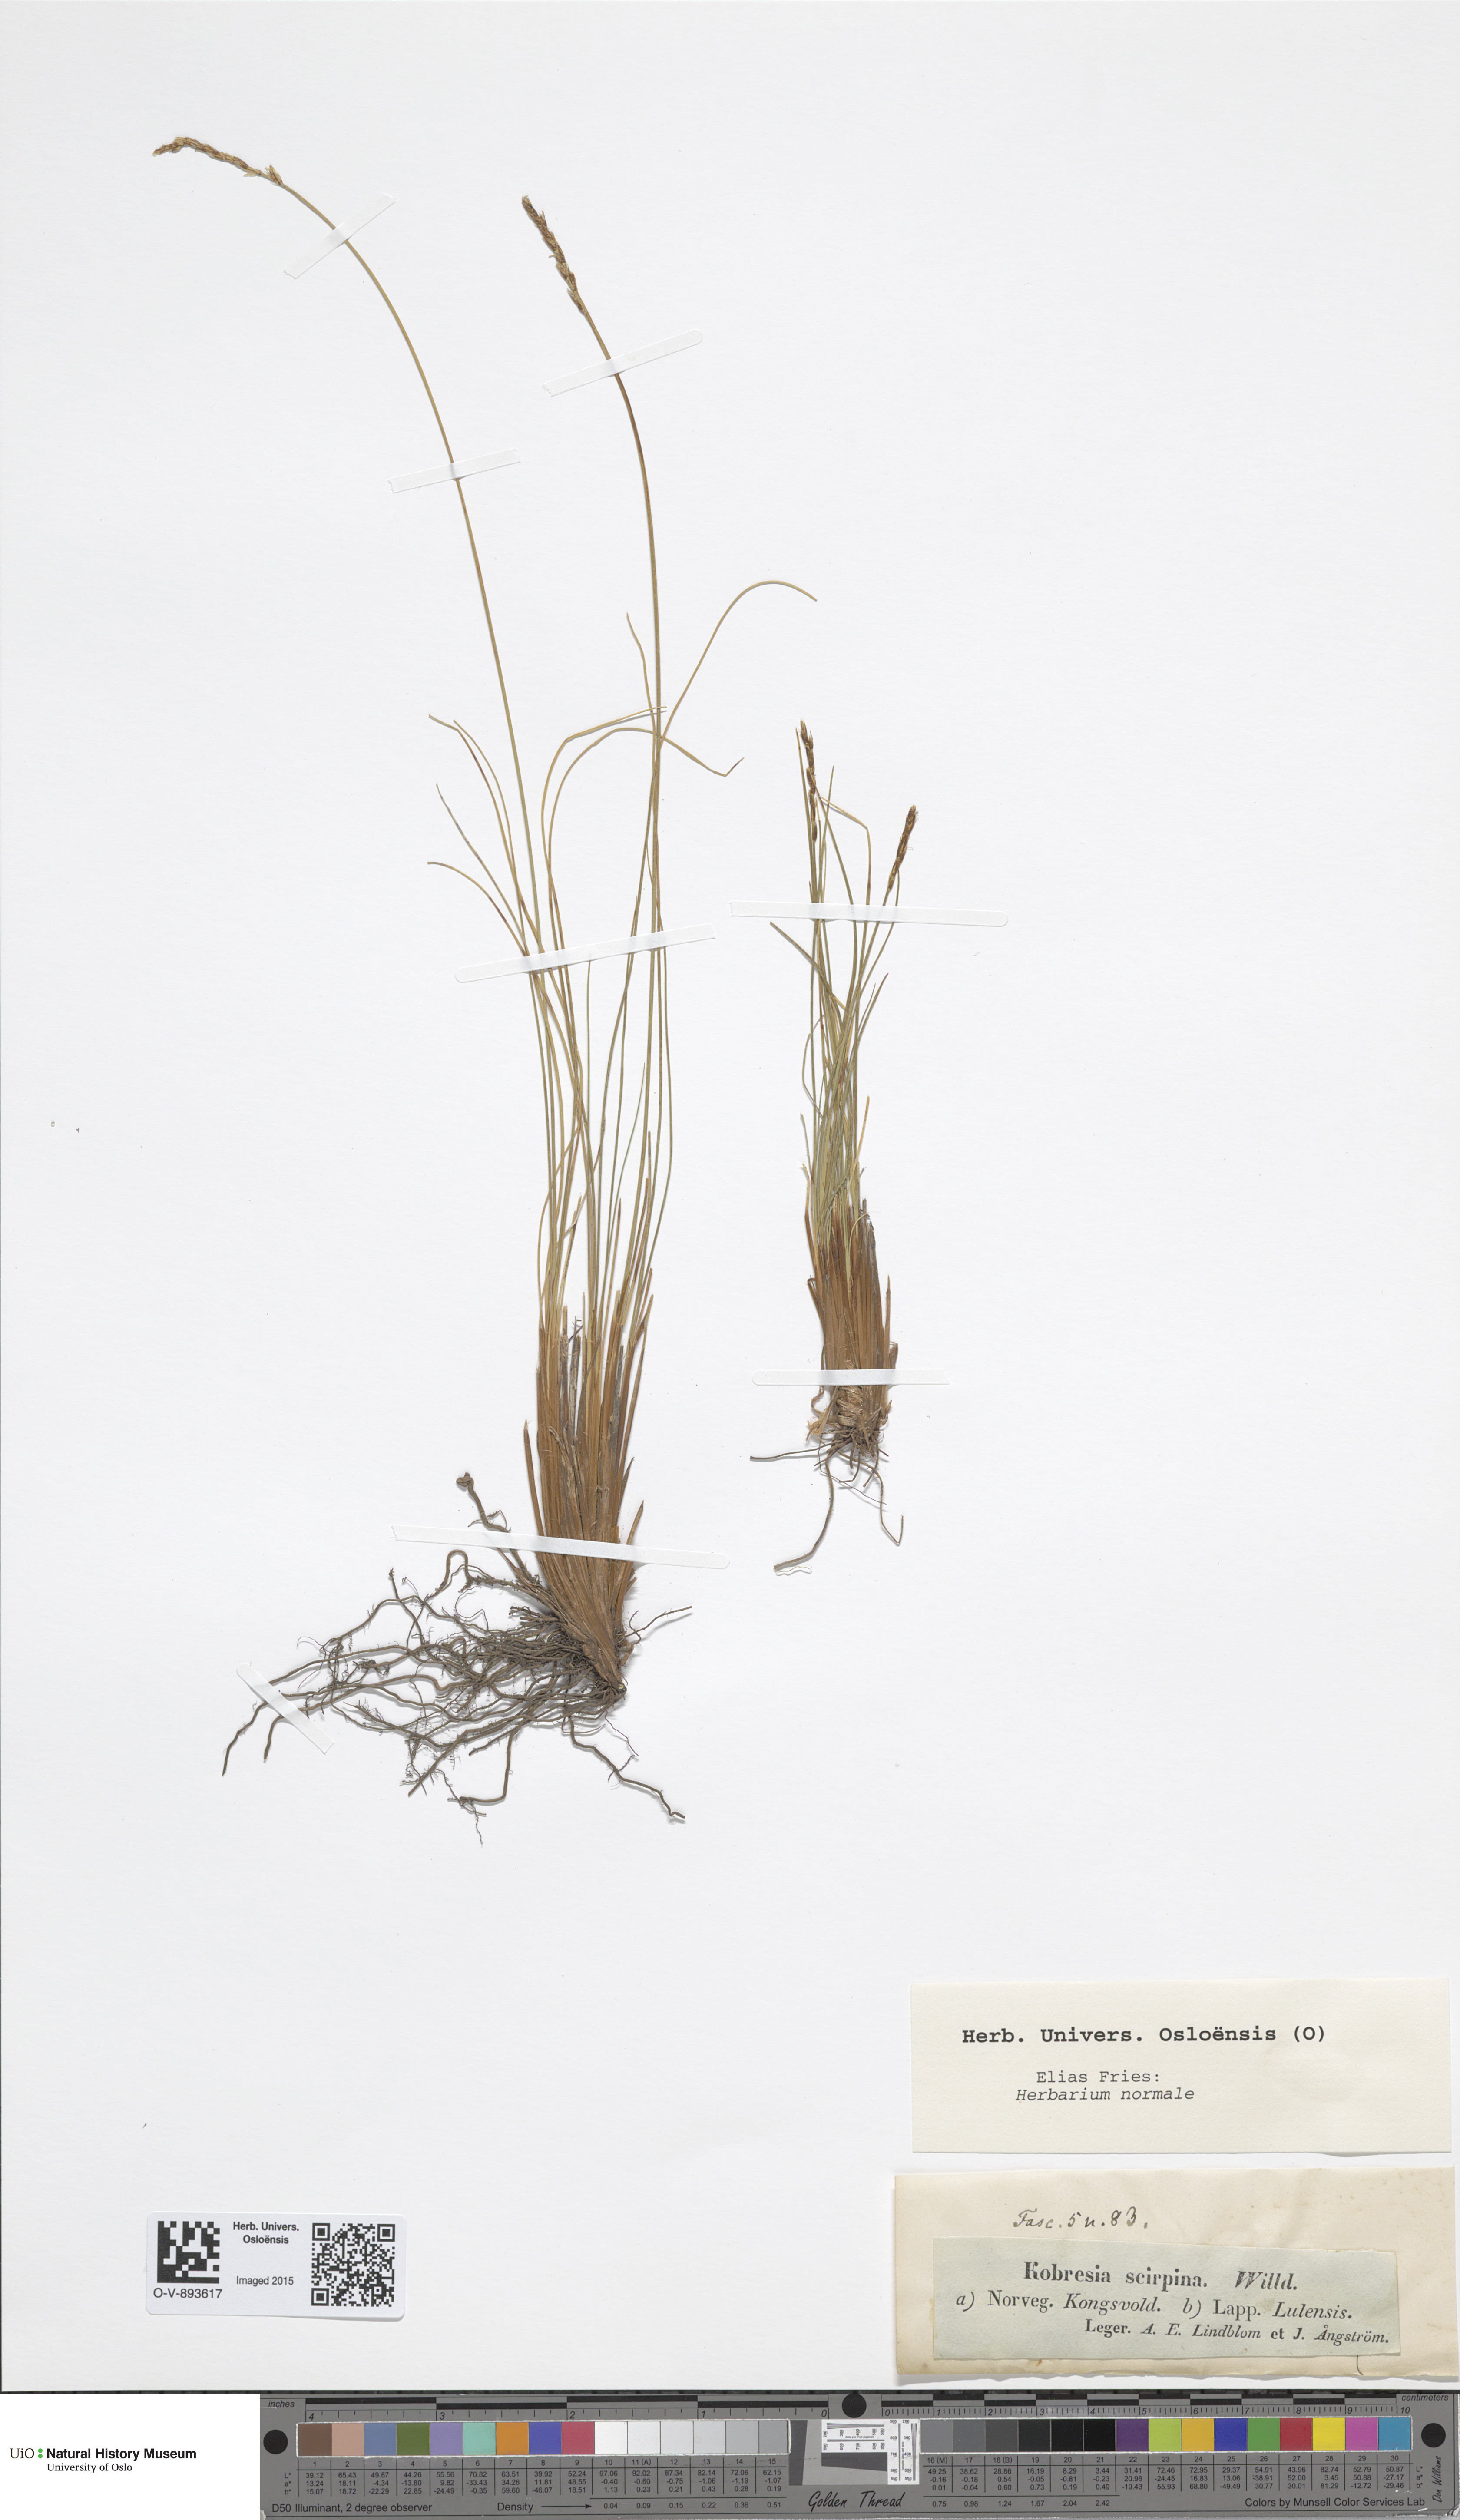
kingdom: Plantae
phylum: Tracheophyta
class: Liliopsida
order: Poales
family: Cyperaceae
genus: Carex
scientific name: Carex myosuroides
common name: Bellard's bog sedge
